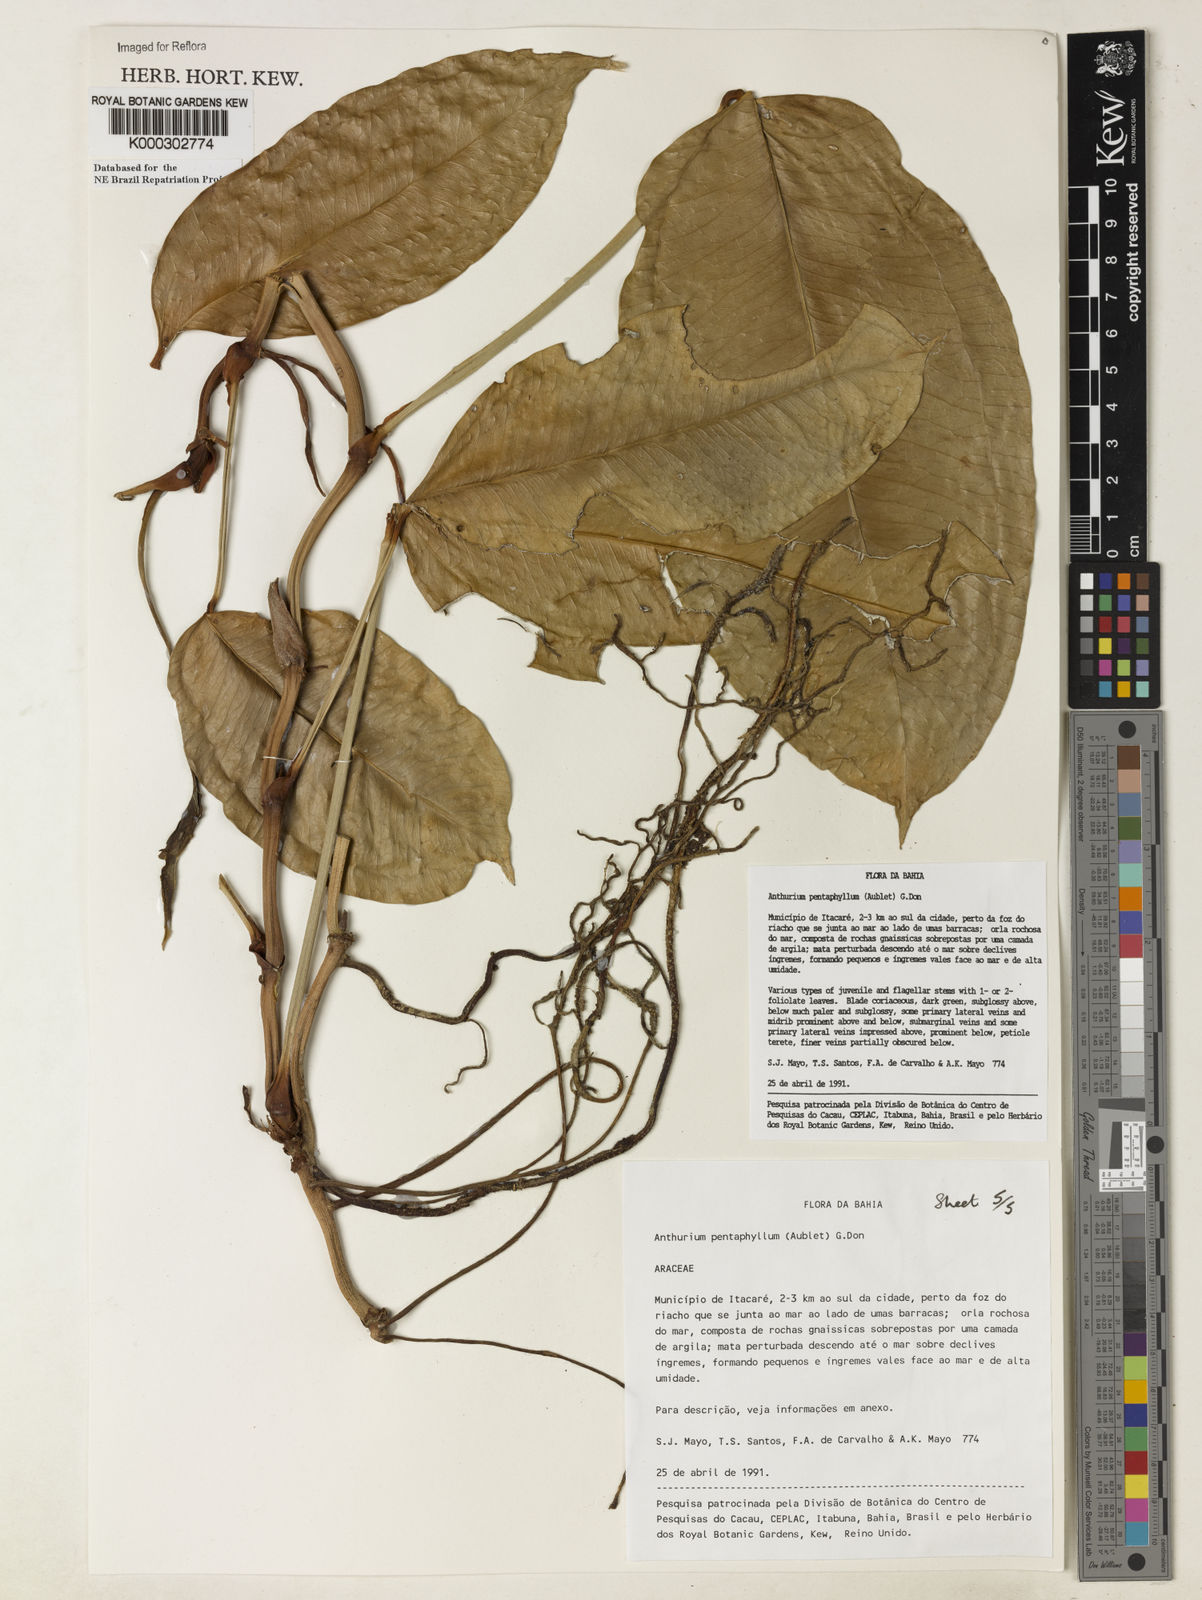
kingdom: Plantae
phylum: Tracheophyta
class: Liliopsida
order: Alismatales
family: Araceae
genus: Anthurium
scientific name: Anthurium pentaphyllum
